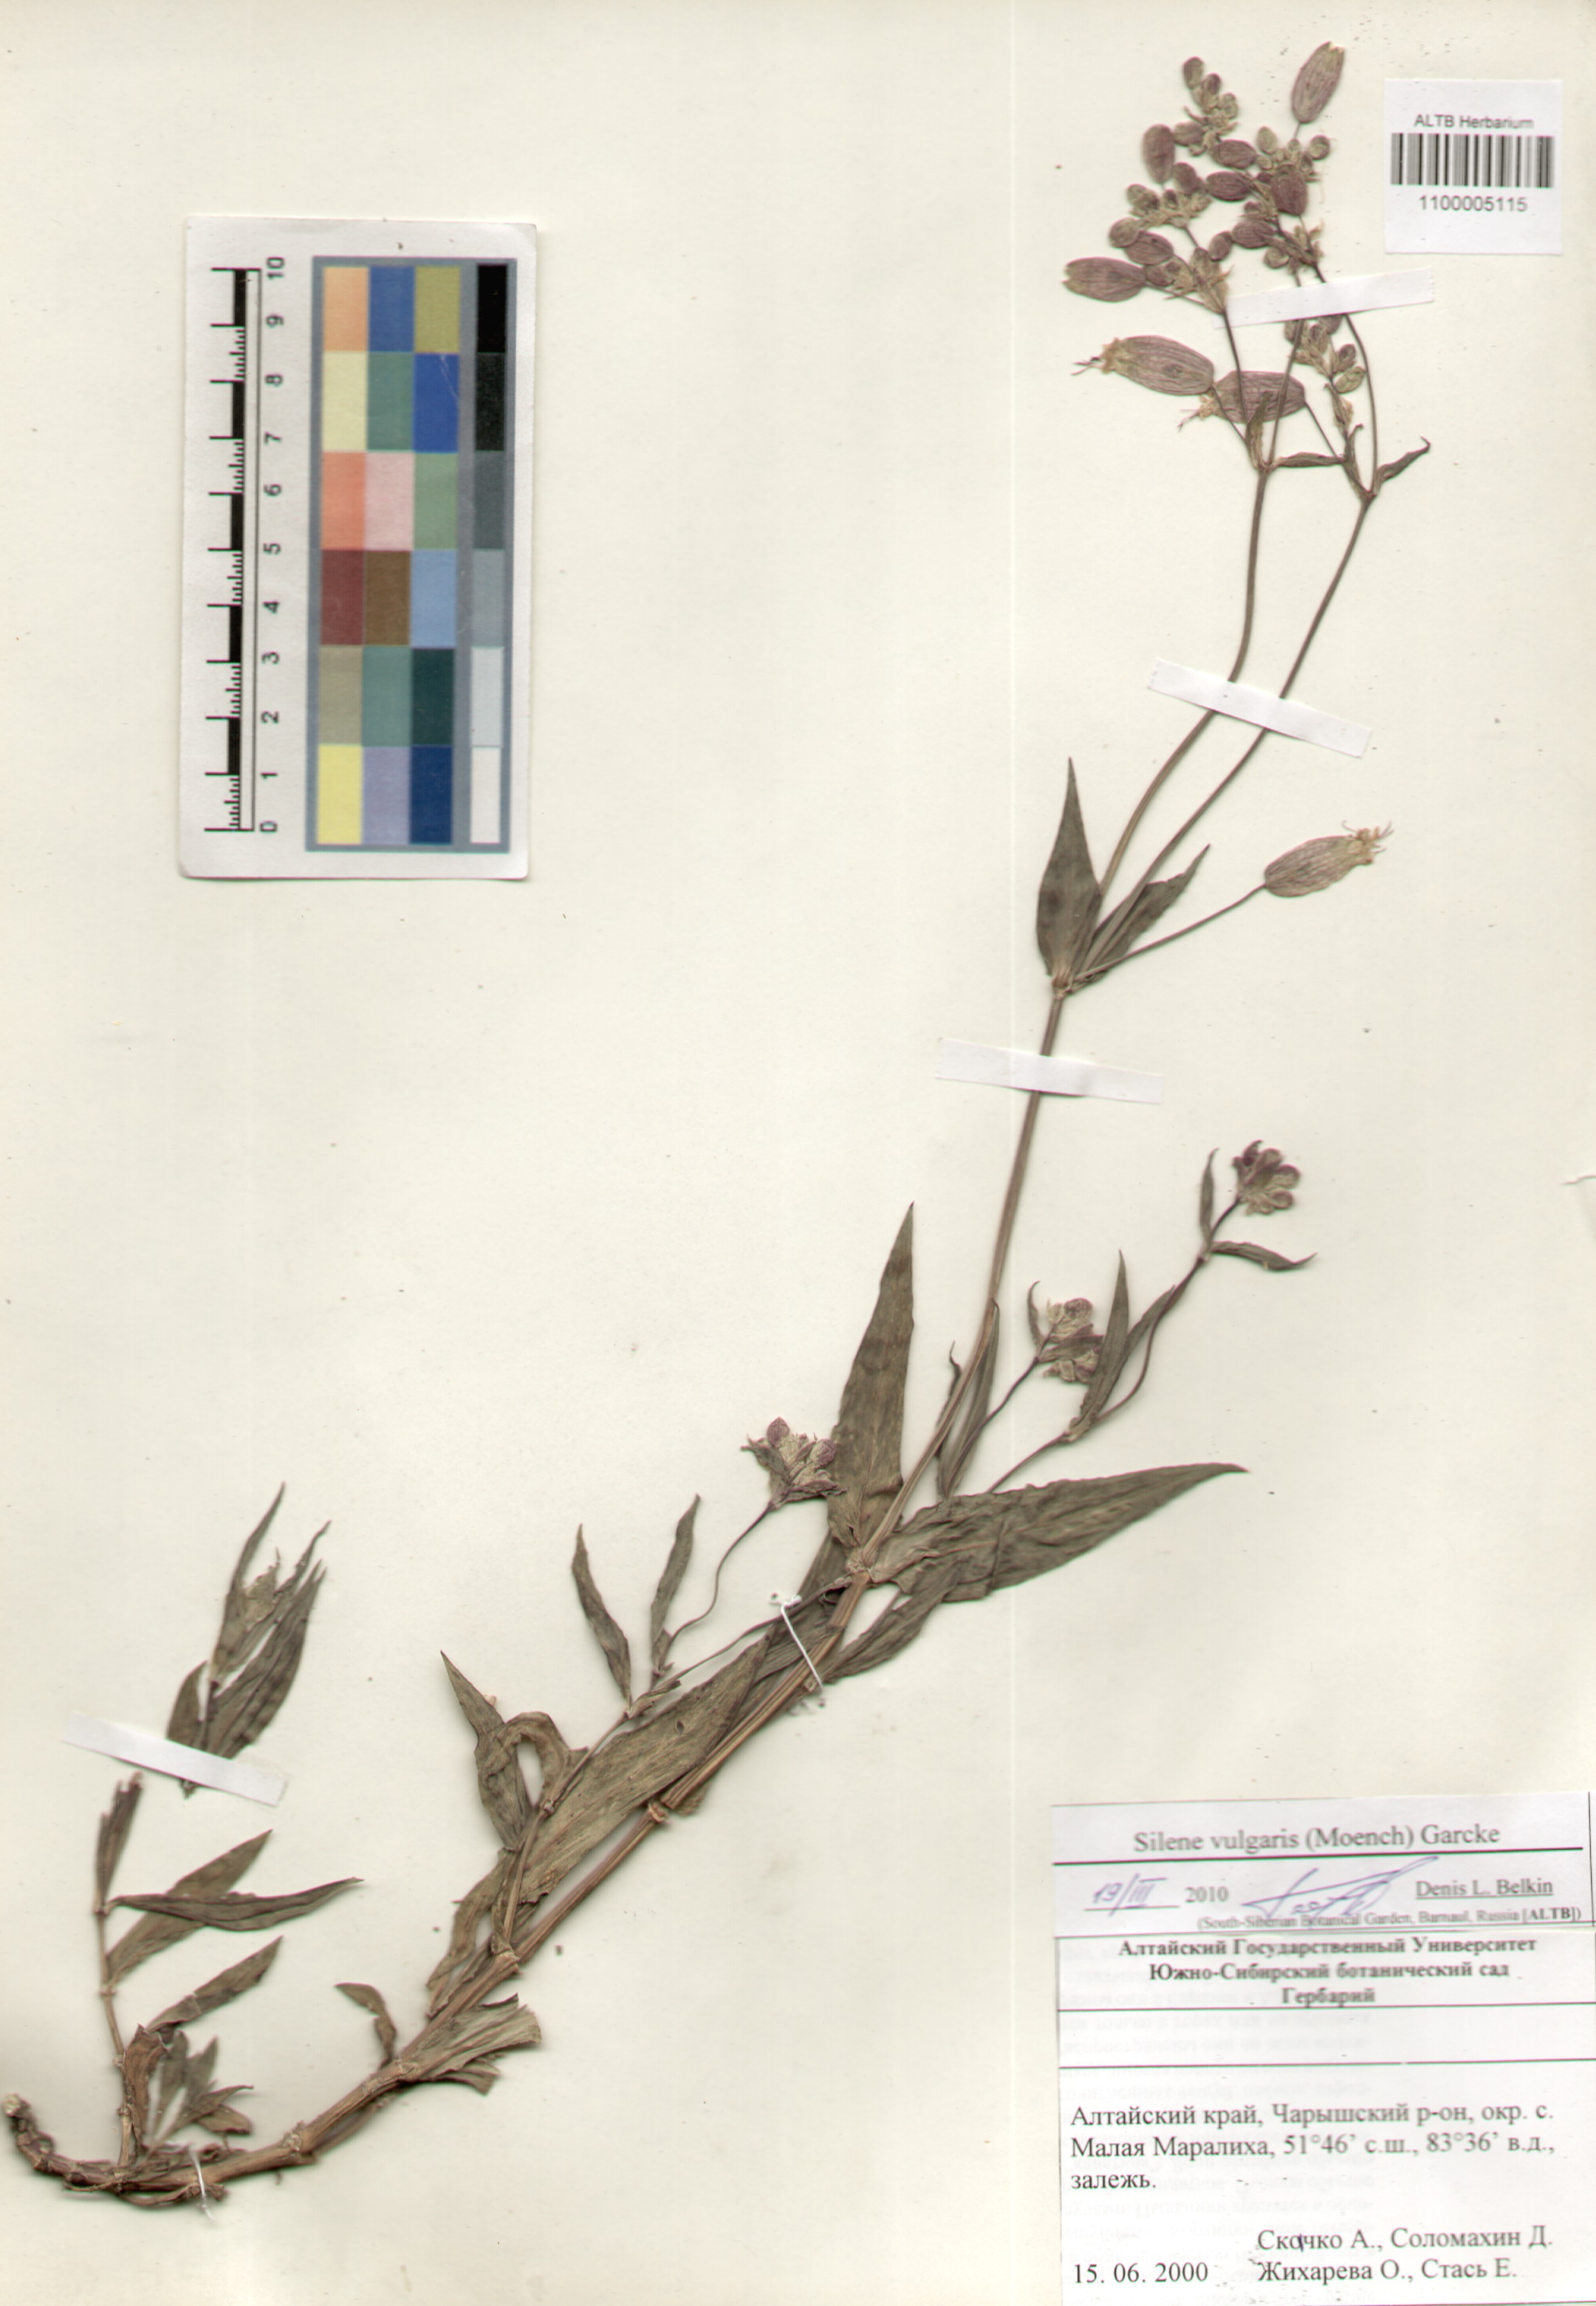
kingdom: Plantae
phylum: Tracheophyta
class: Magnoliopsida
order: Caryophyllales
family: Caryophyllaceae
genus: Silene
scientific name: Silene vulgaris
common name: Bladder campion
